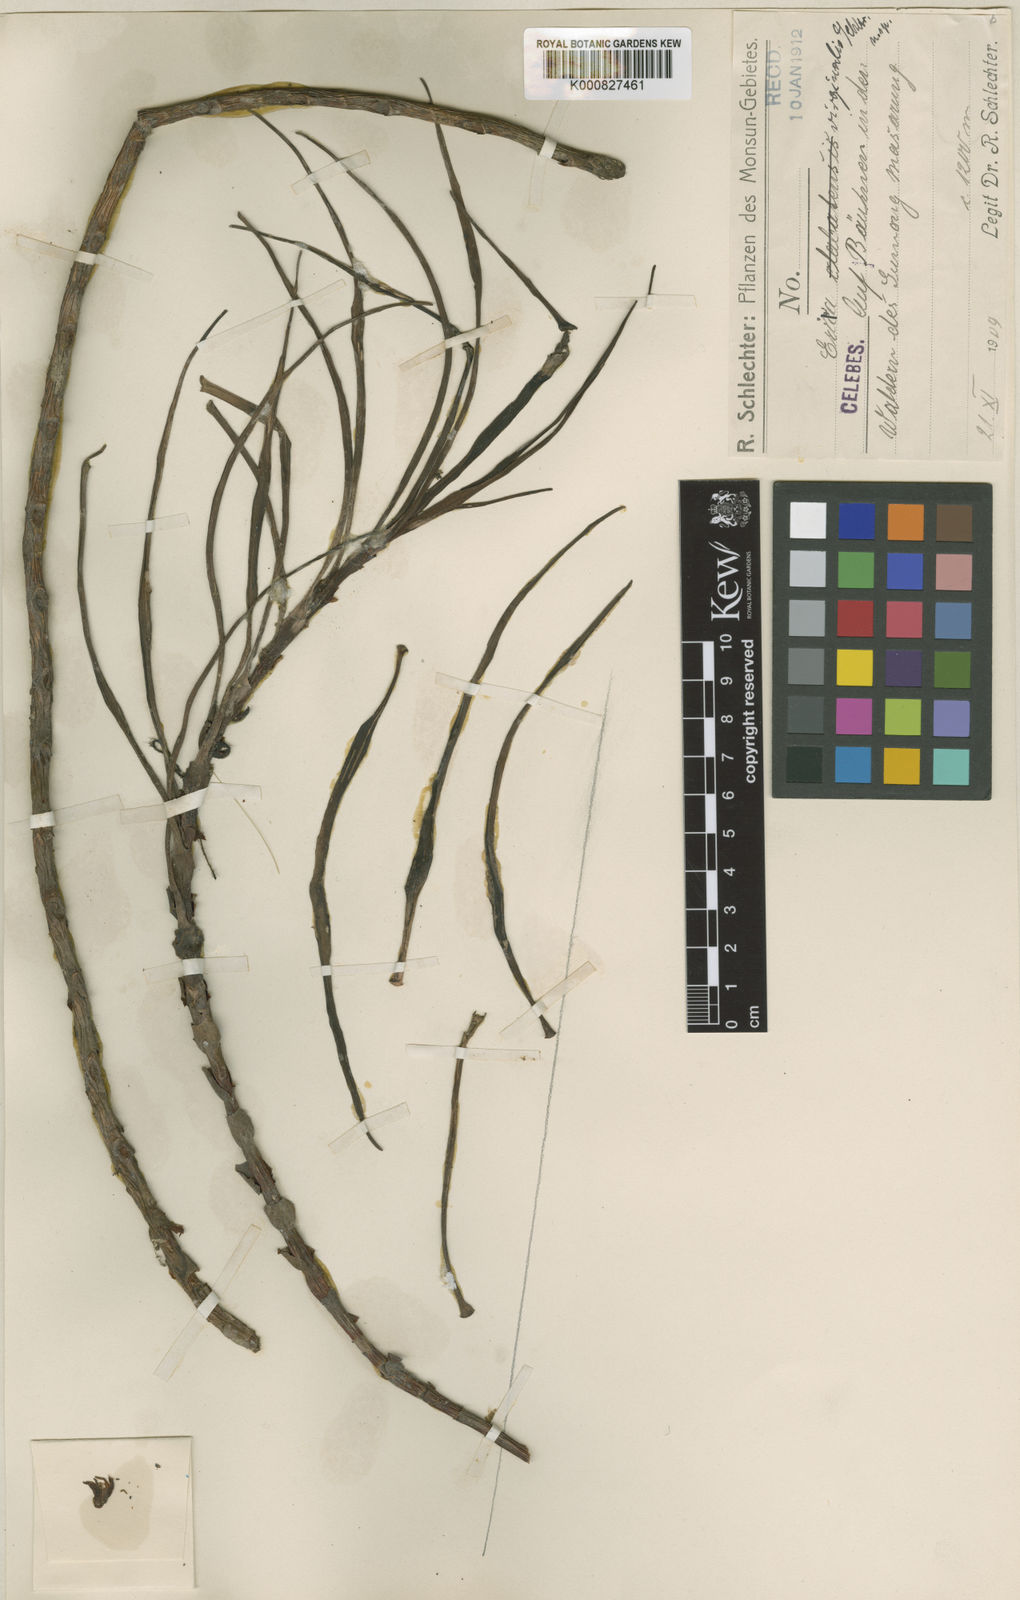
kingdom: Plantae
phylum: Tracheophyta
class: Liliopsida
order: Asparagales
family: Orchidaceae
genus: Cylindrolobus
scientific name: Cylindrolobus virginalis
